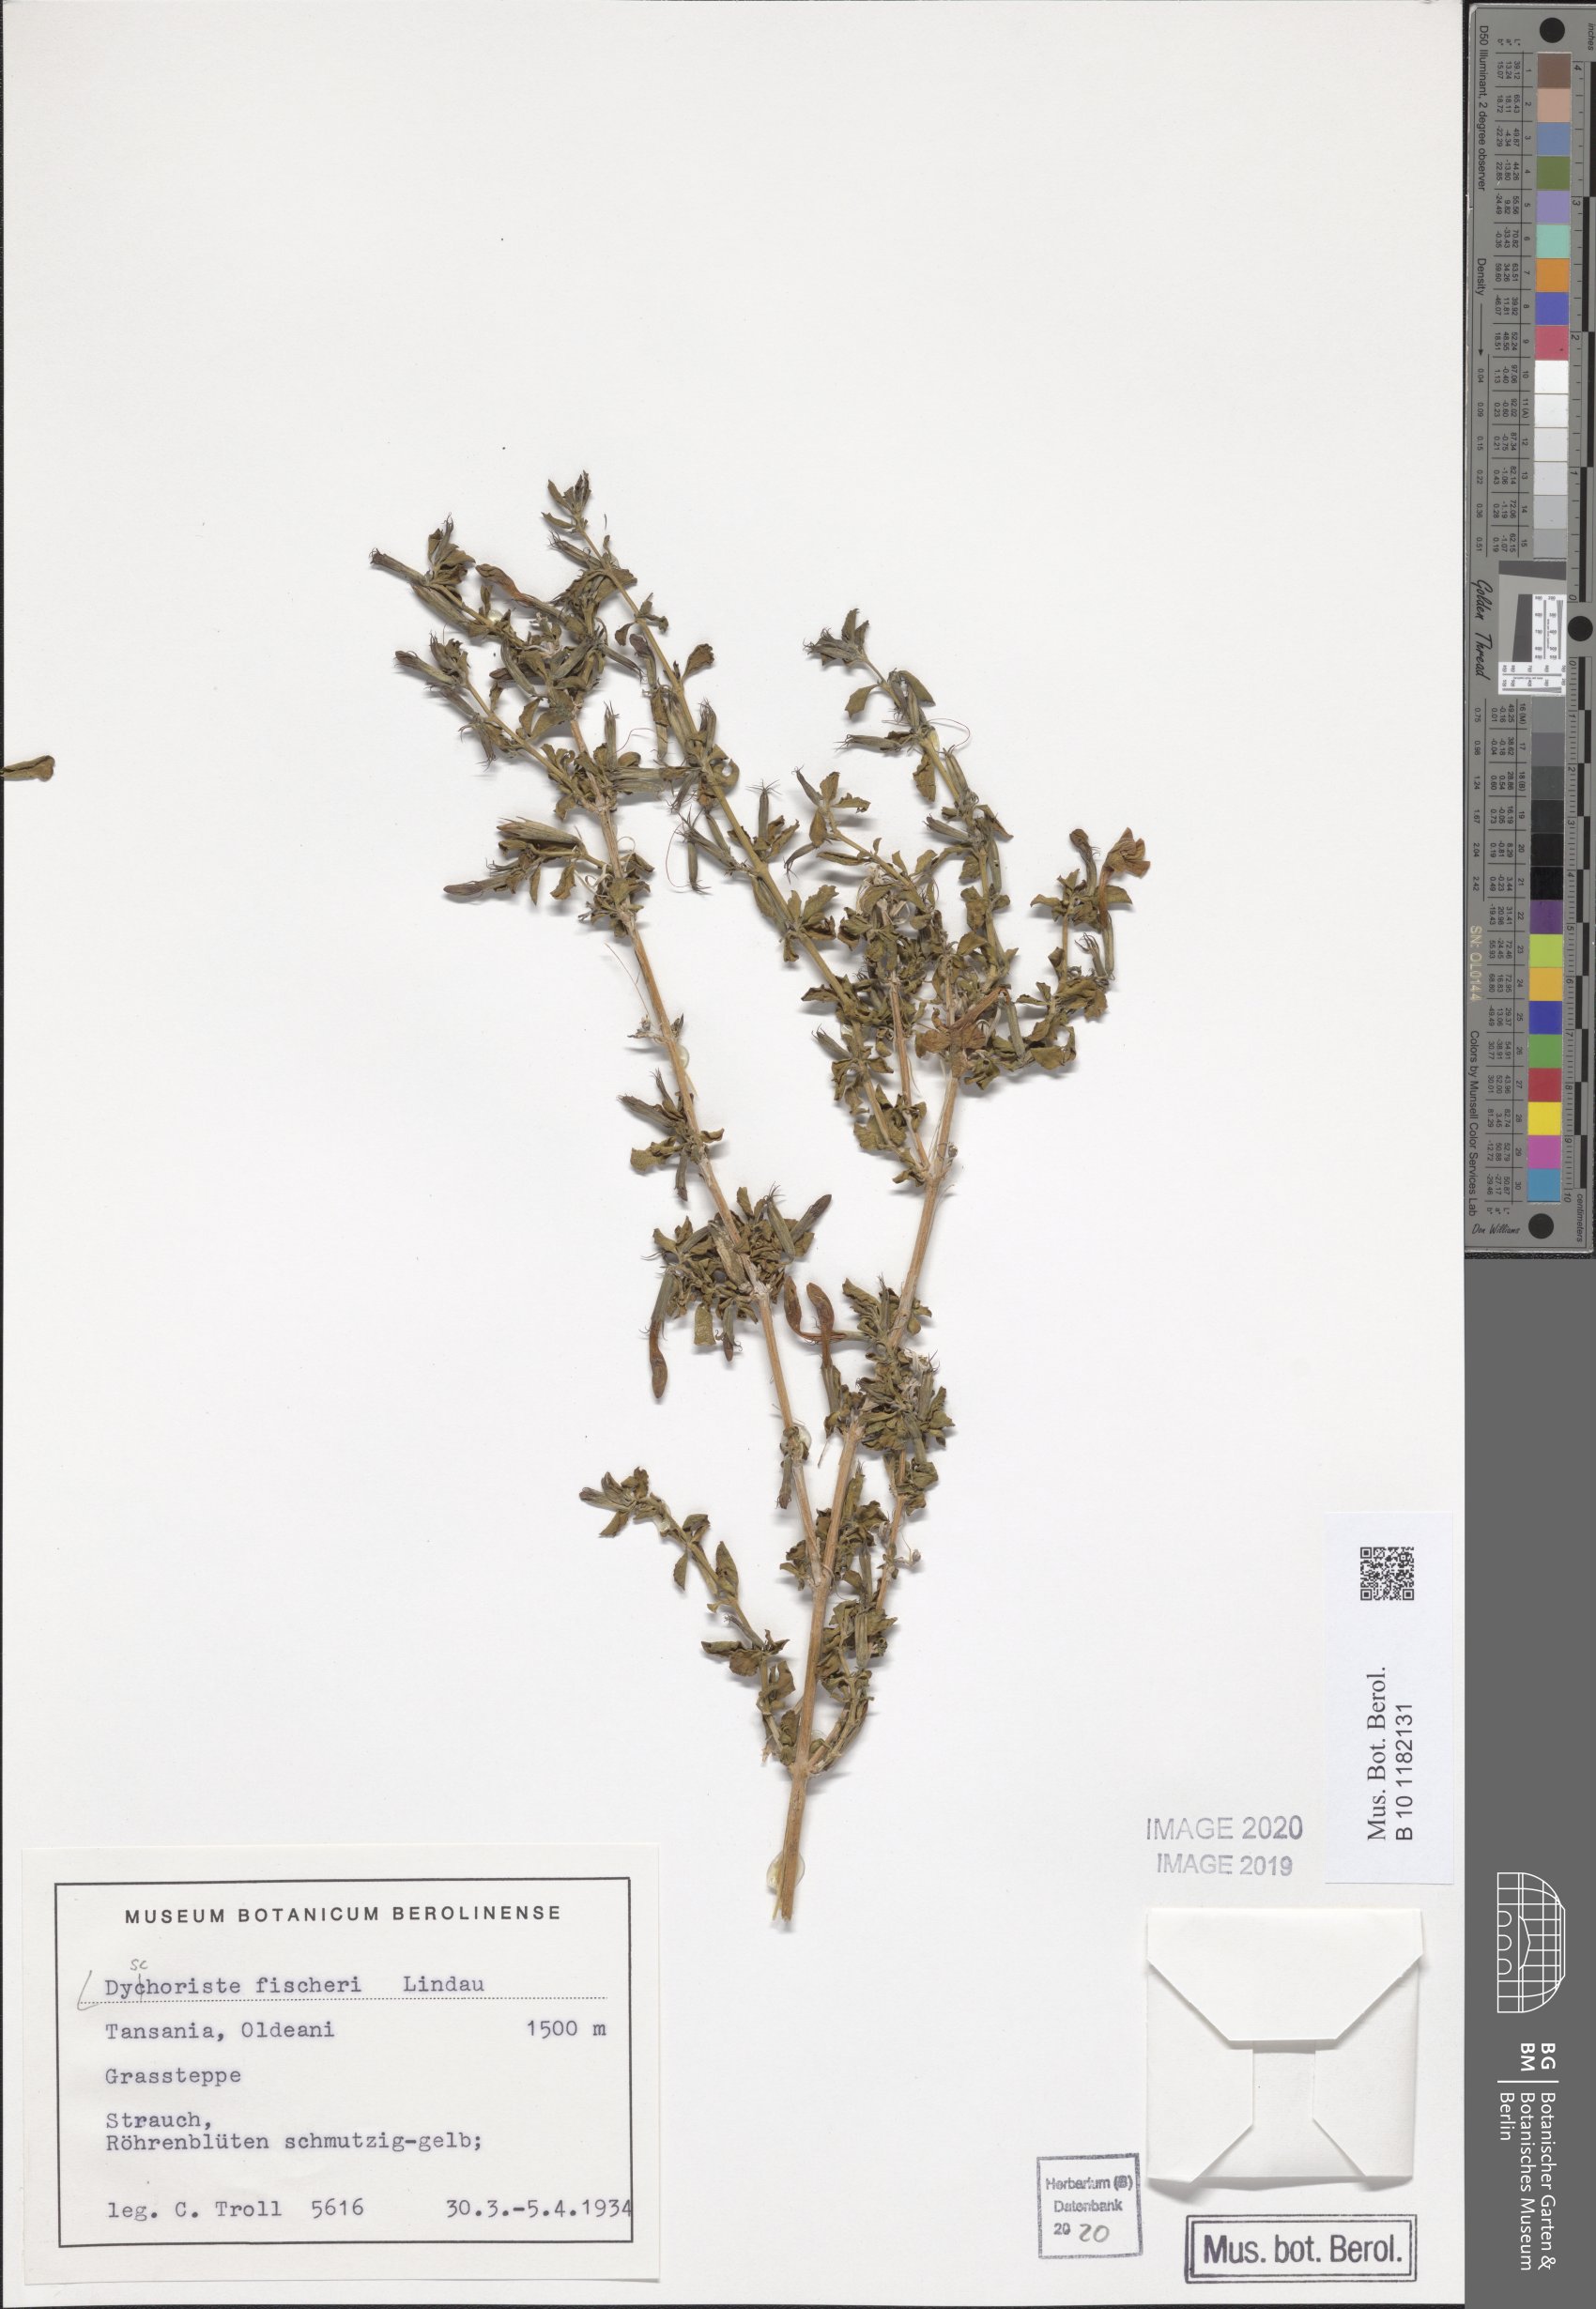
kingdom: Plantae
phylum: Tracheophyta
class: Magnoliopsida
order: Lamiales
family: Acanthaceae
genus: Dyschoriste
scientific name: Dyschoriste hildebrandtii
